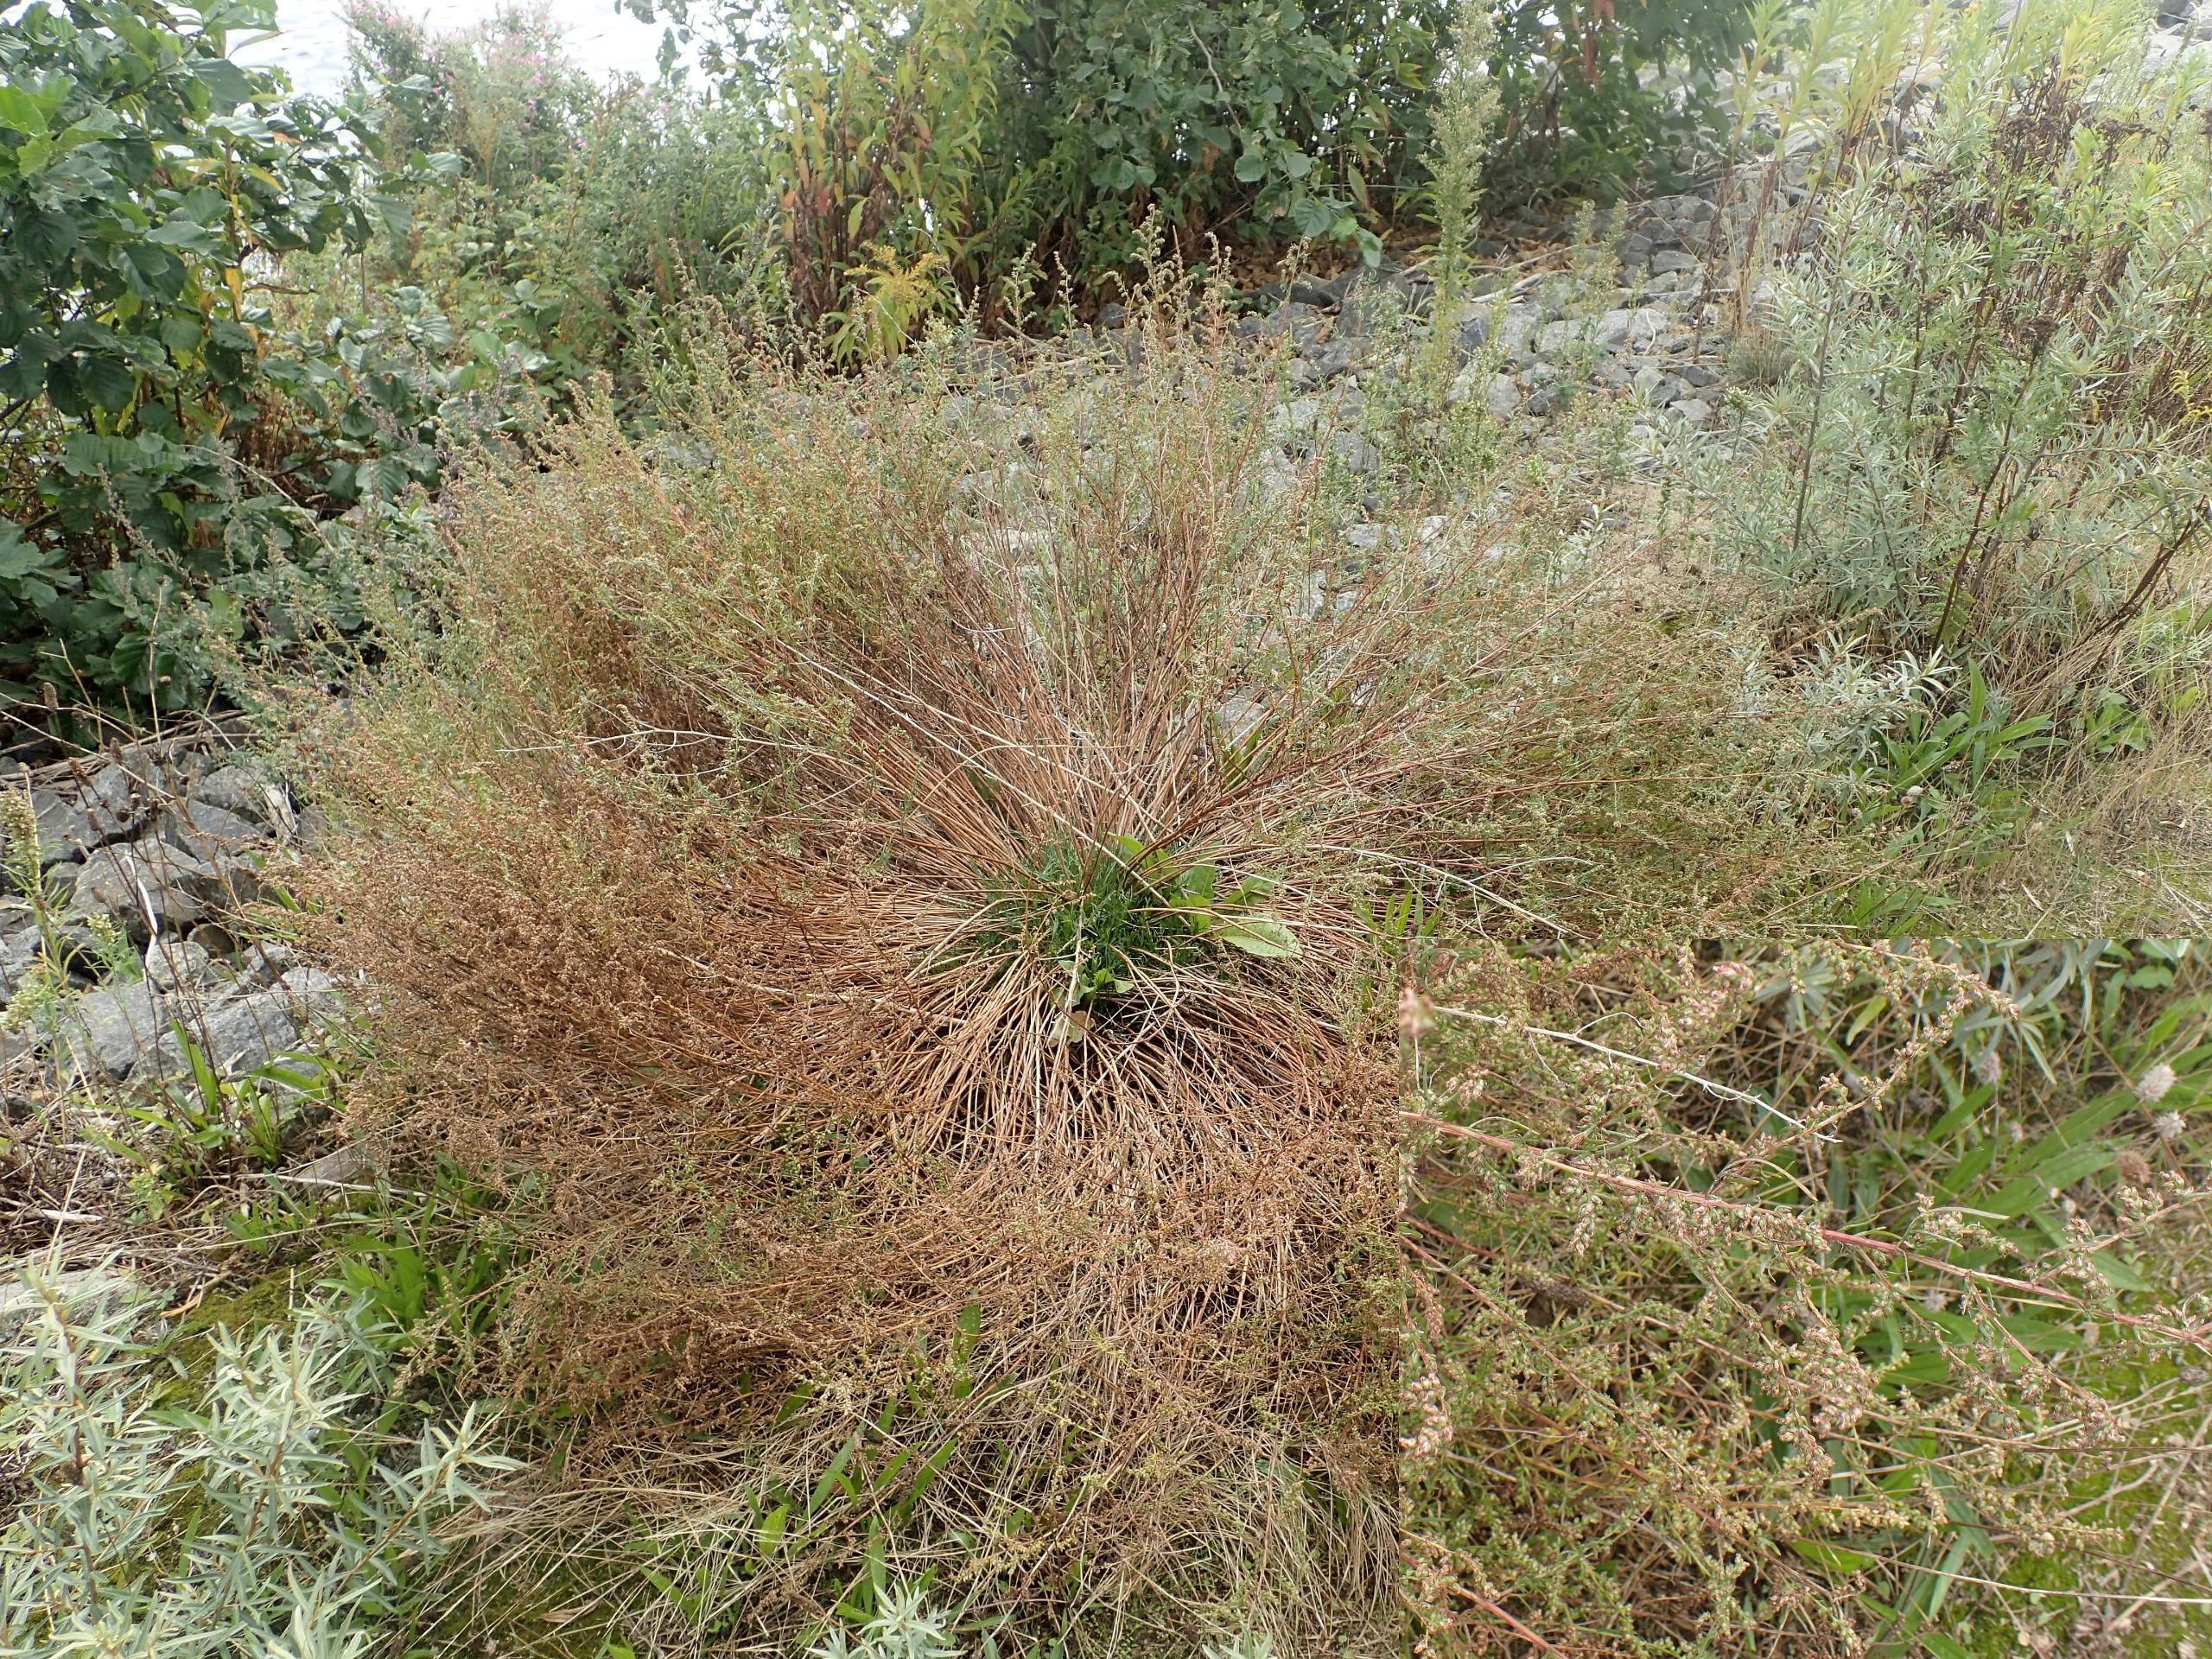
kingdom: Plantae
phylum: Tracheophyta
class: Magnoliopsida
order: Asterales
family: Asteraceae
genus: Artemisia
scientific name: Artemisia campestris
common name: Mark-bynke
